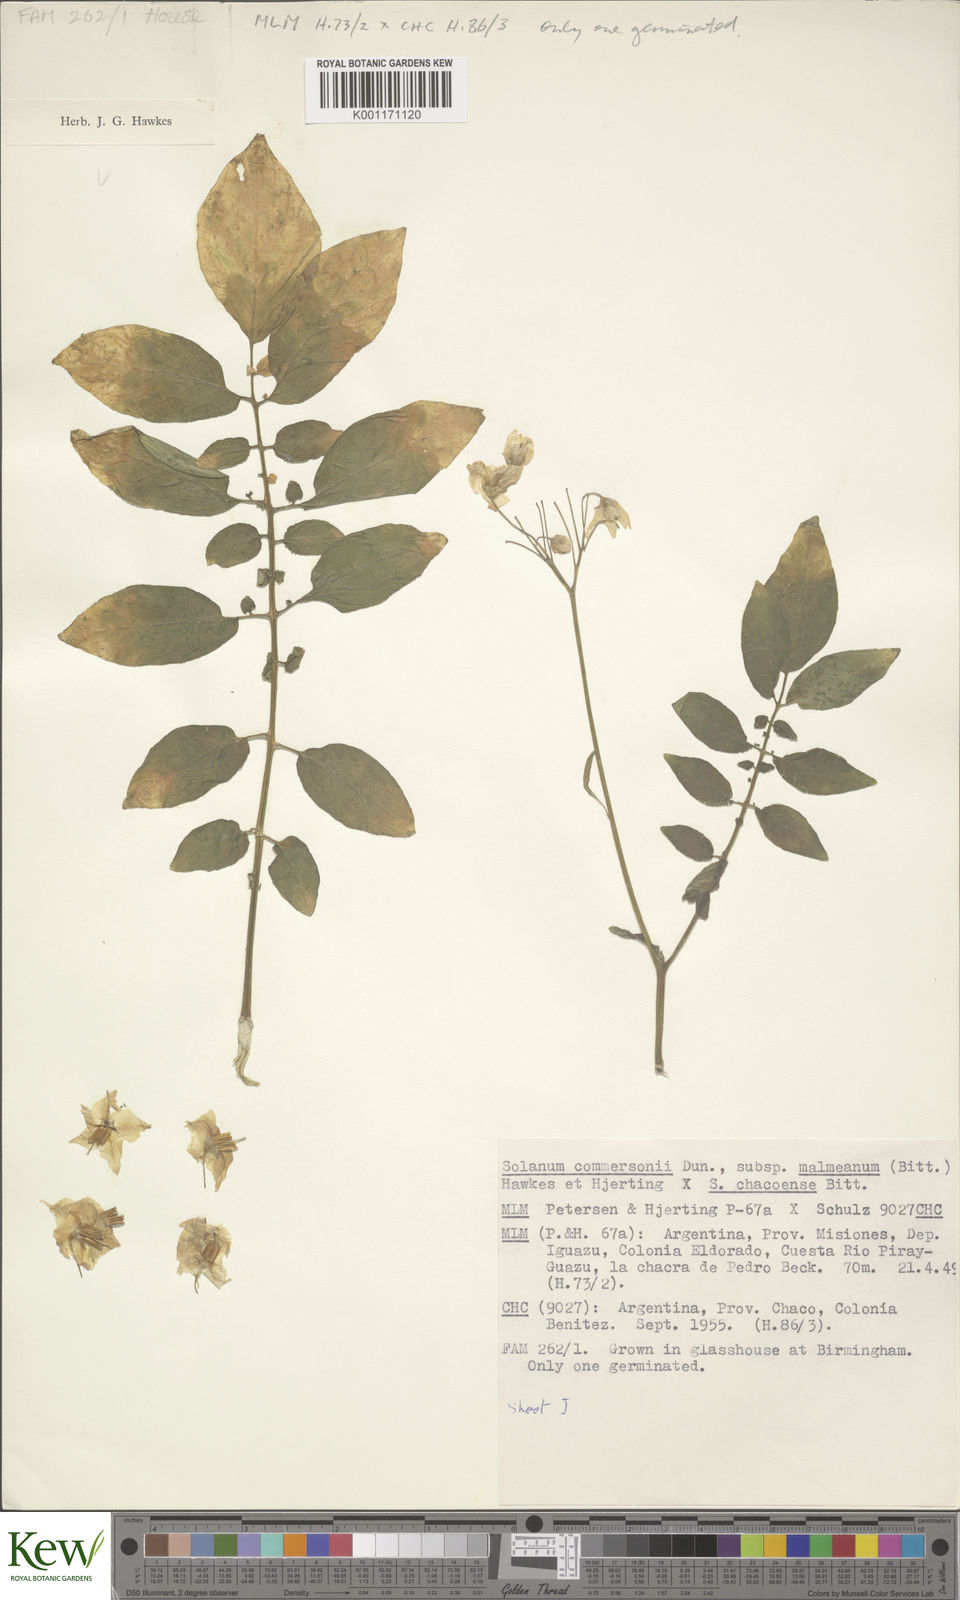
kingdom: Plantae
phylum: Tracheophyta
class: Magnoliopsida
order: Solanales
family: Solanaceae
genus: Solanum
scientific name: Solanum malmeanum
